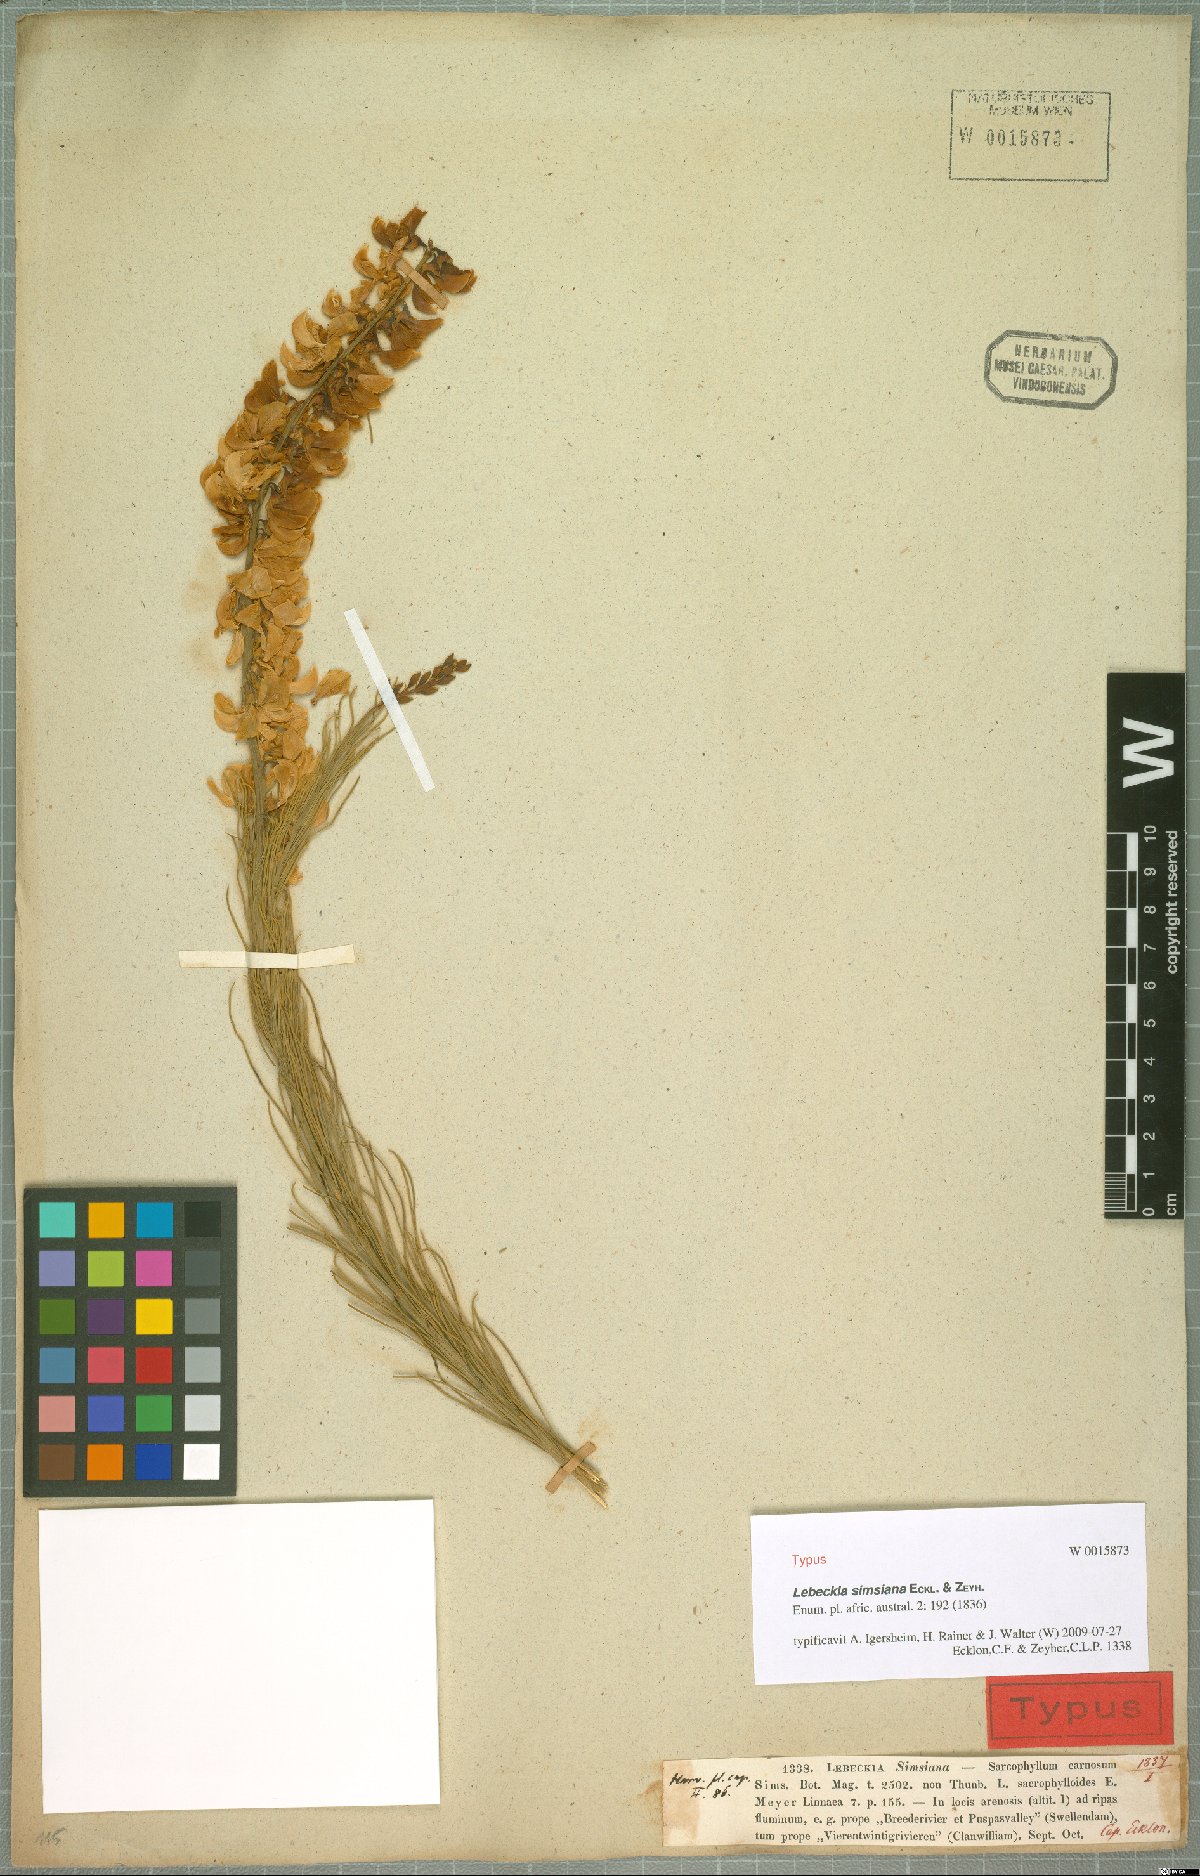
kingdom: Plantae
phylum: Tracheophyta
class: Magnoliopsida
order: Fabales
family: Fabaceae
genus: Lebeckia
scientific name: Lebeckia sepiaria
